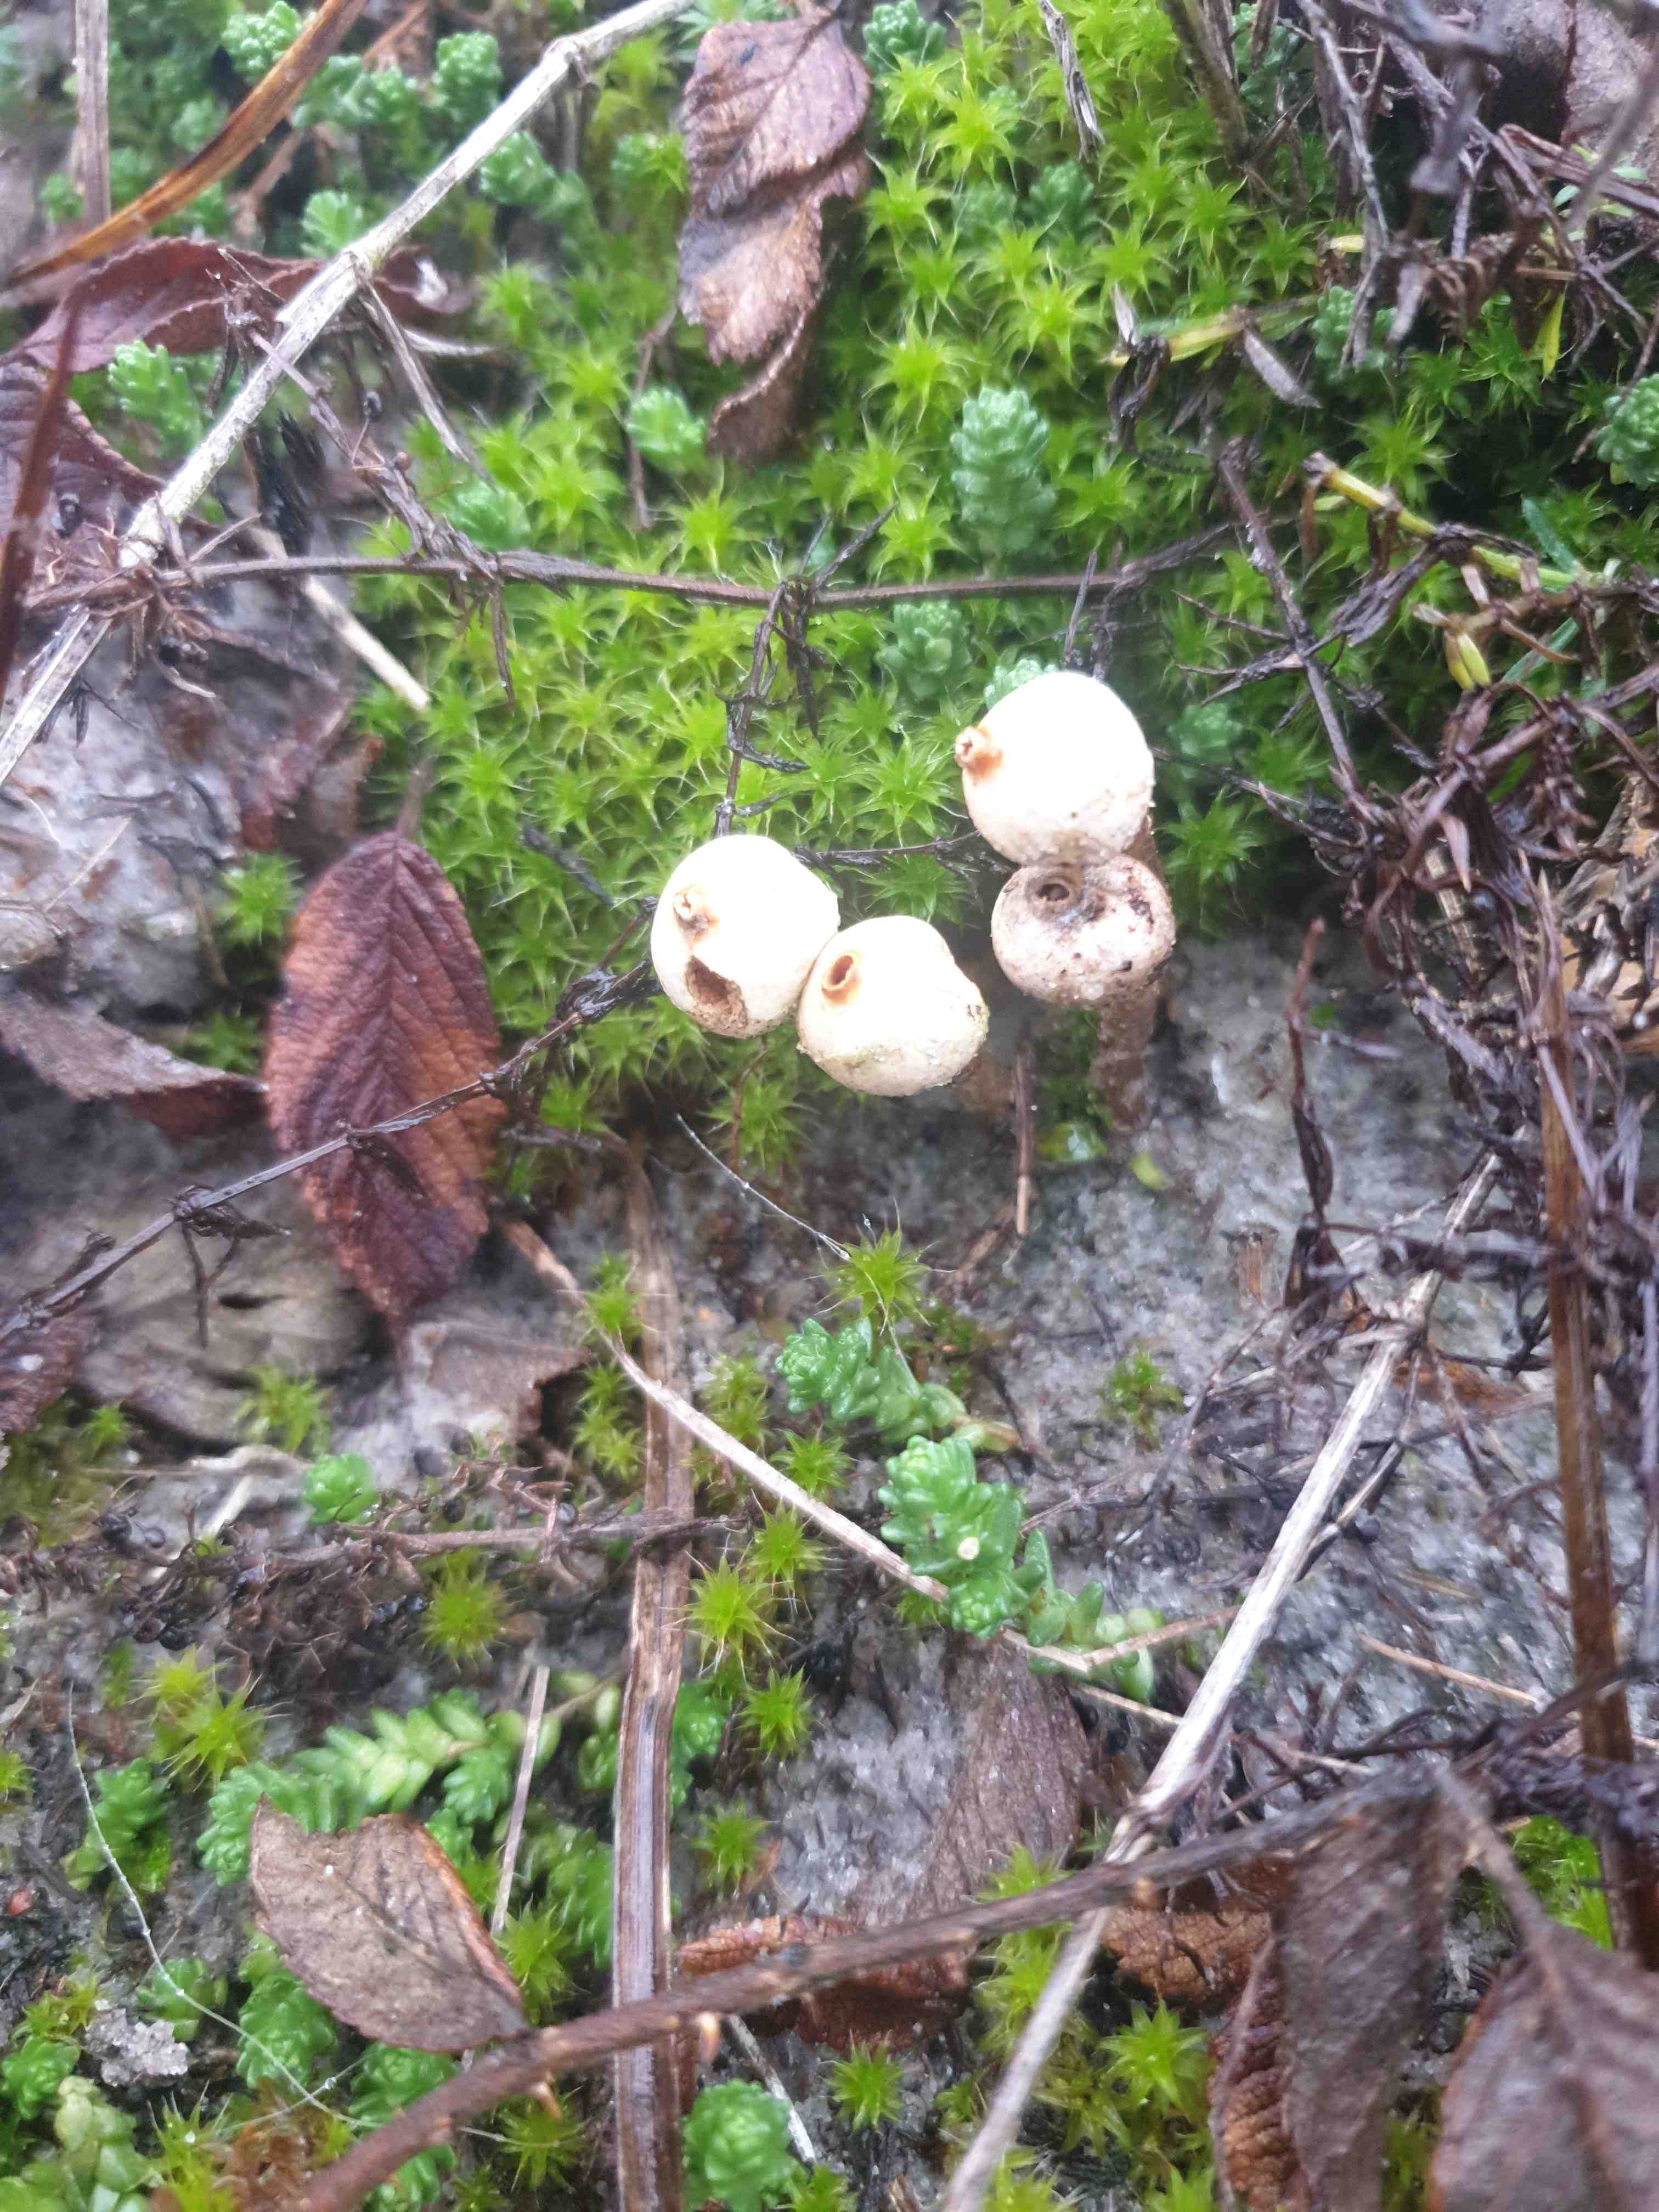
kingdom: Fungi
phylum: Basidiomycota
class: Agaricomycetes
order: Agaricales
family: Agaricaceae
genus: Tulostoma
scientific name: Tulostoma brumale
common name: vinter-stilkbovist
